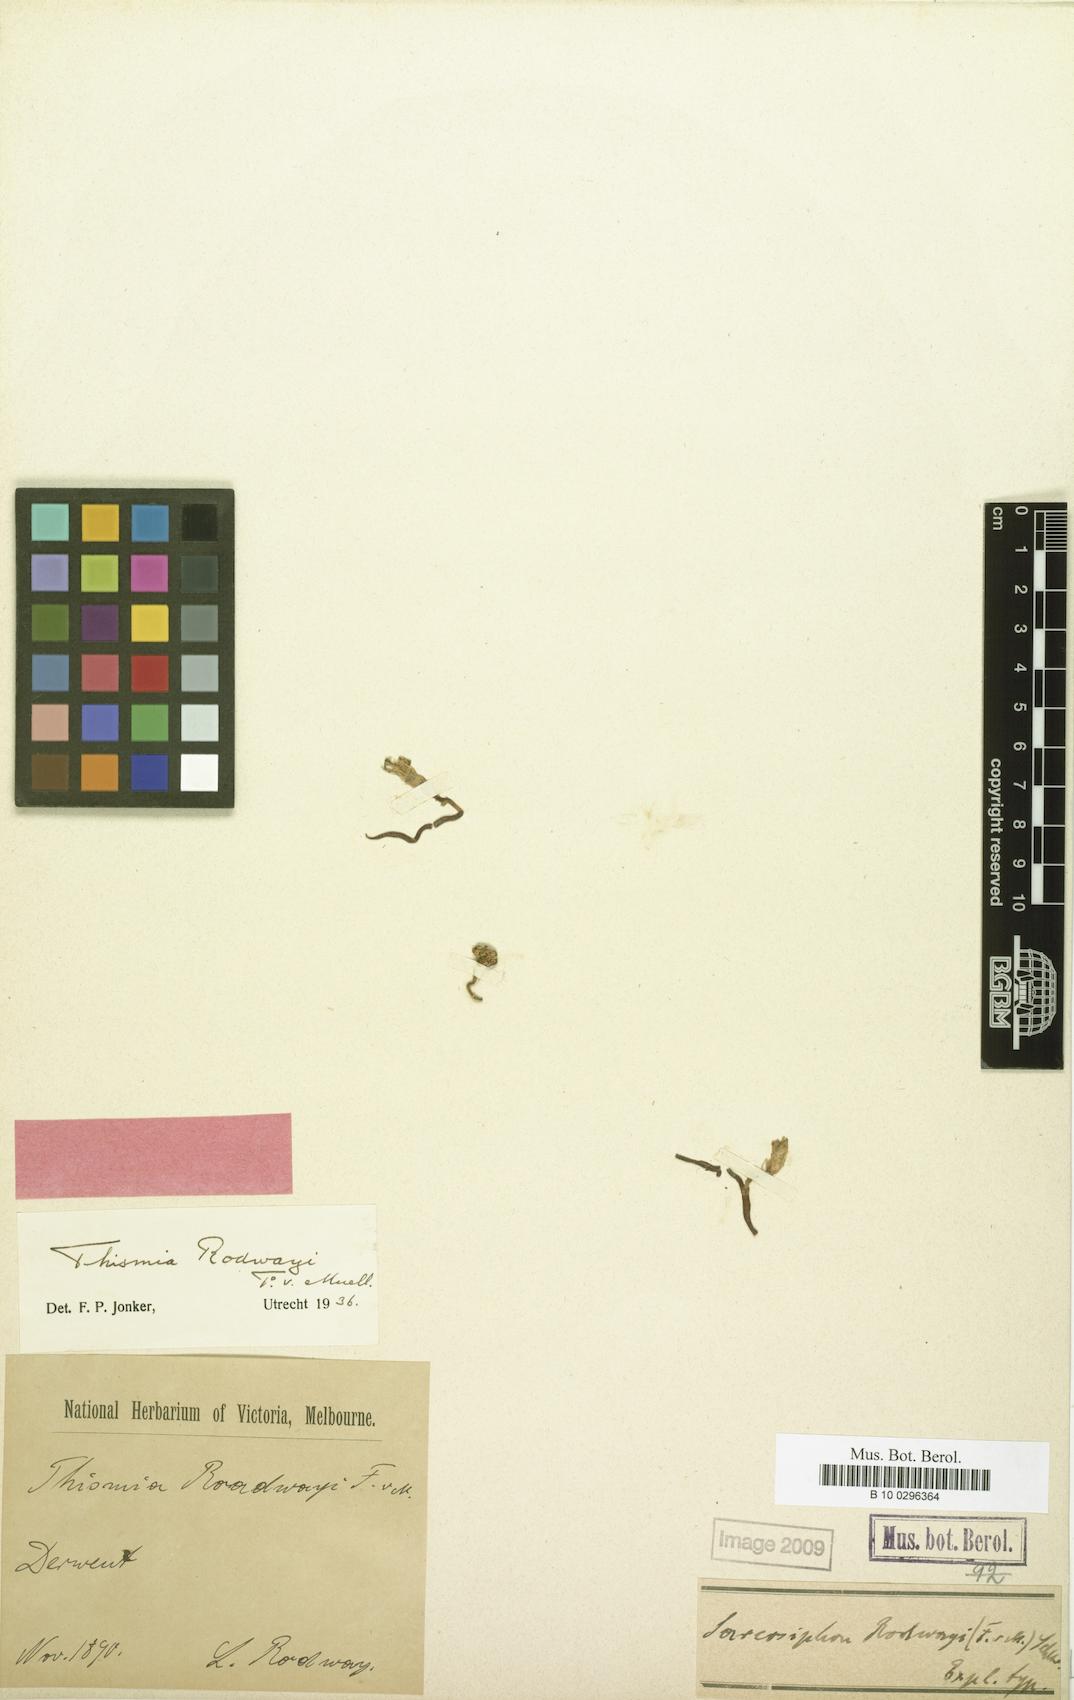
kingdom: Plantae
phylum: Tracheophyta
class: Liliopsida
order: Dioscoreales
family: Burmanniaceae
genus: Thismia
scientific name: Thismia rodwayi
